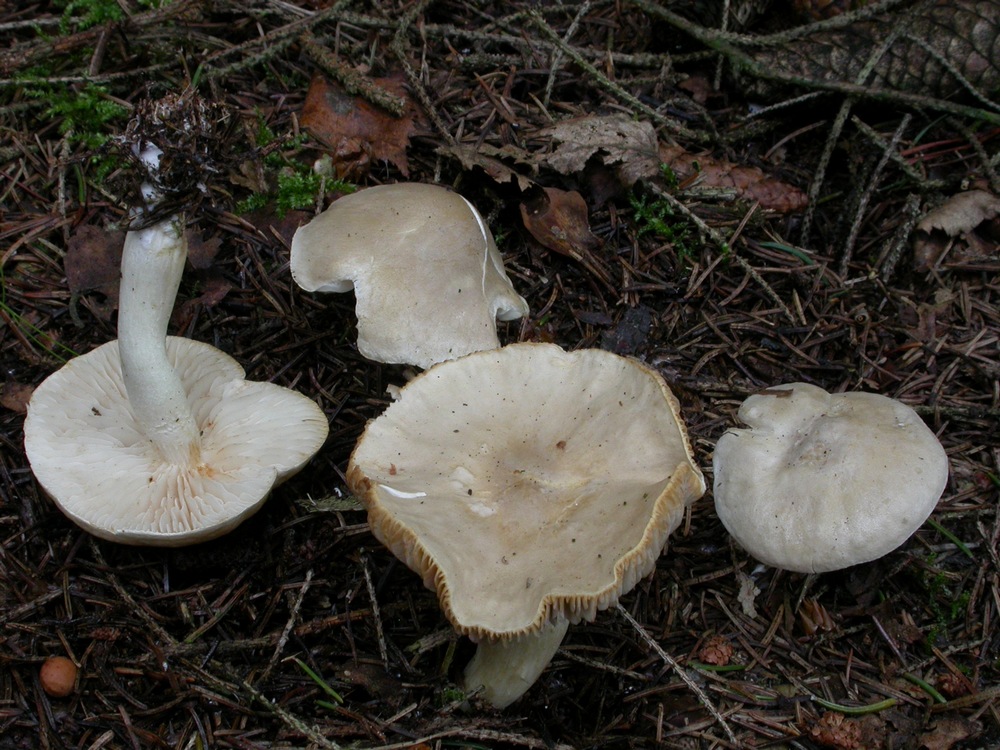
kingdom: Fungi
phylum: Basidiomycota
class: Agaricomycetes
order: Agaricales
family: Tricholomataceae
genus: Tricholoma
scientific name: Tricholoma inamoenum
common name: højstokket ridderhat
